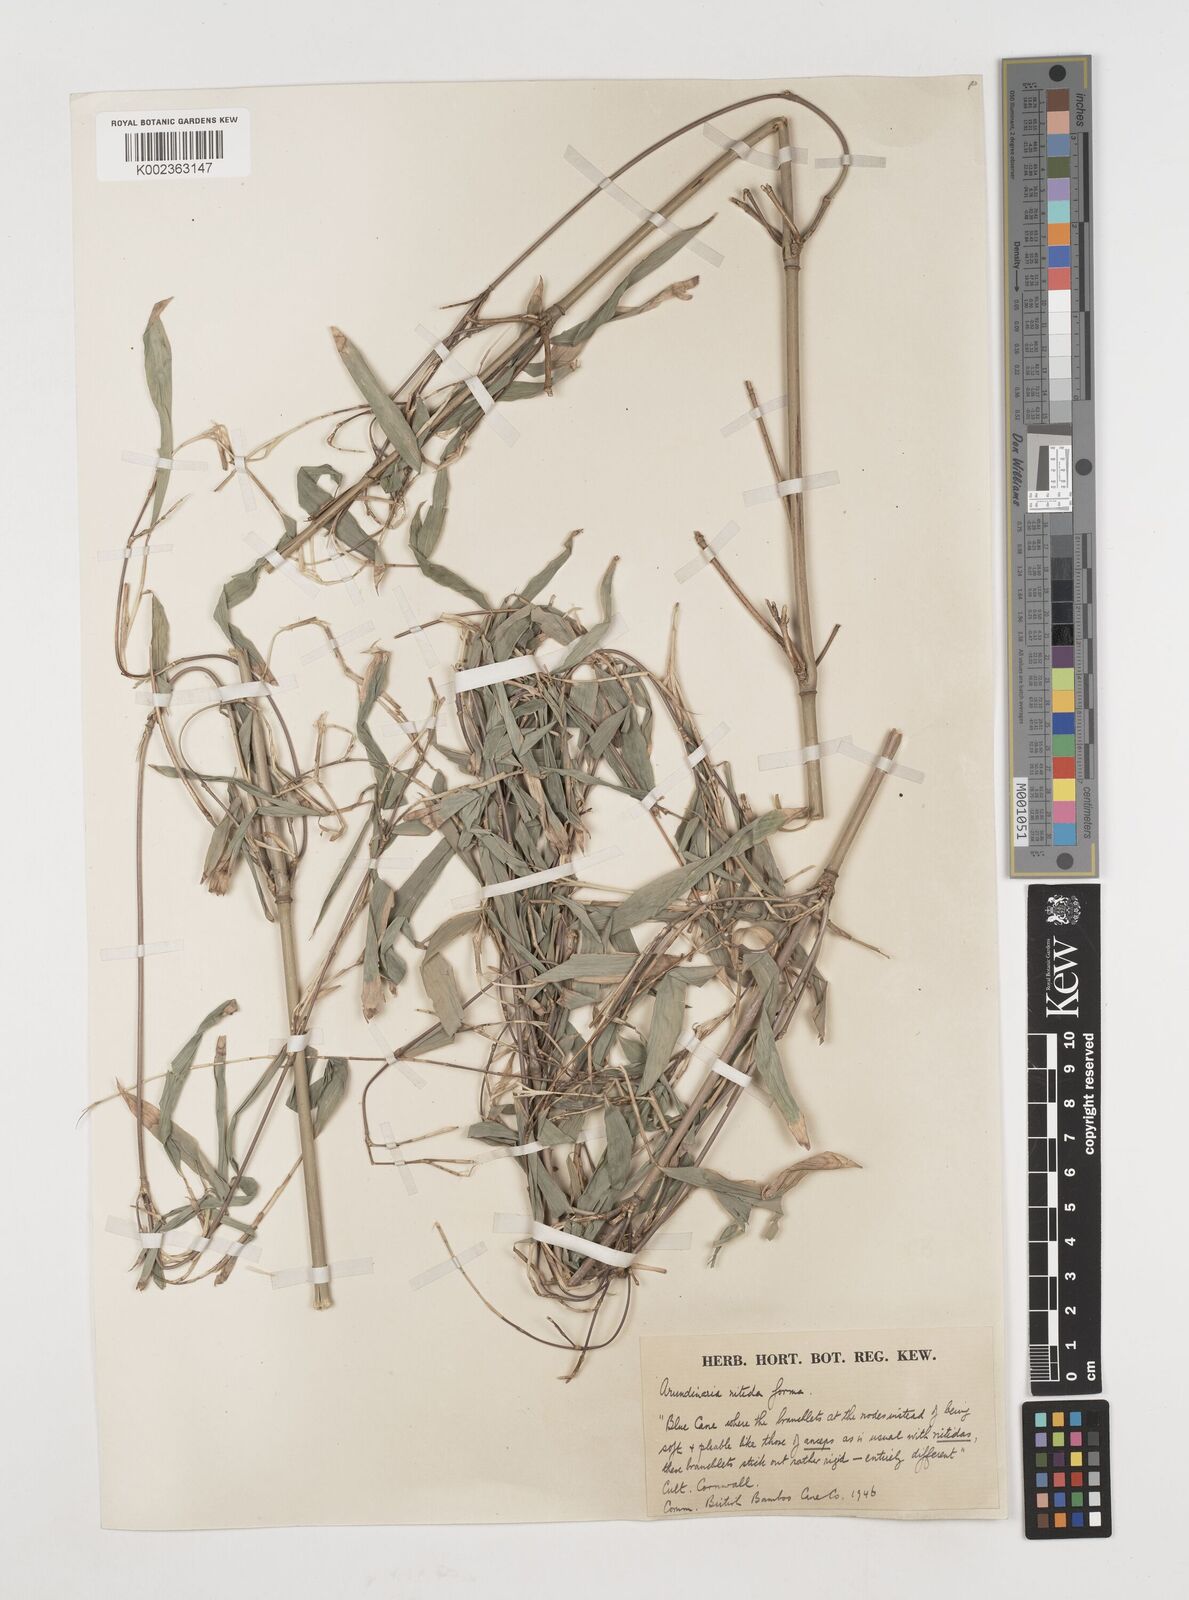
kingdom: Plantae
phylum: Tracheophyta
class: Liliopsida
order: Poales
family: Poaceae
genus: Fargesia
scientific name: Fargesia
